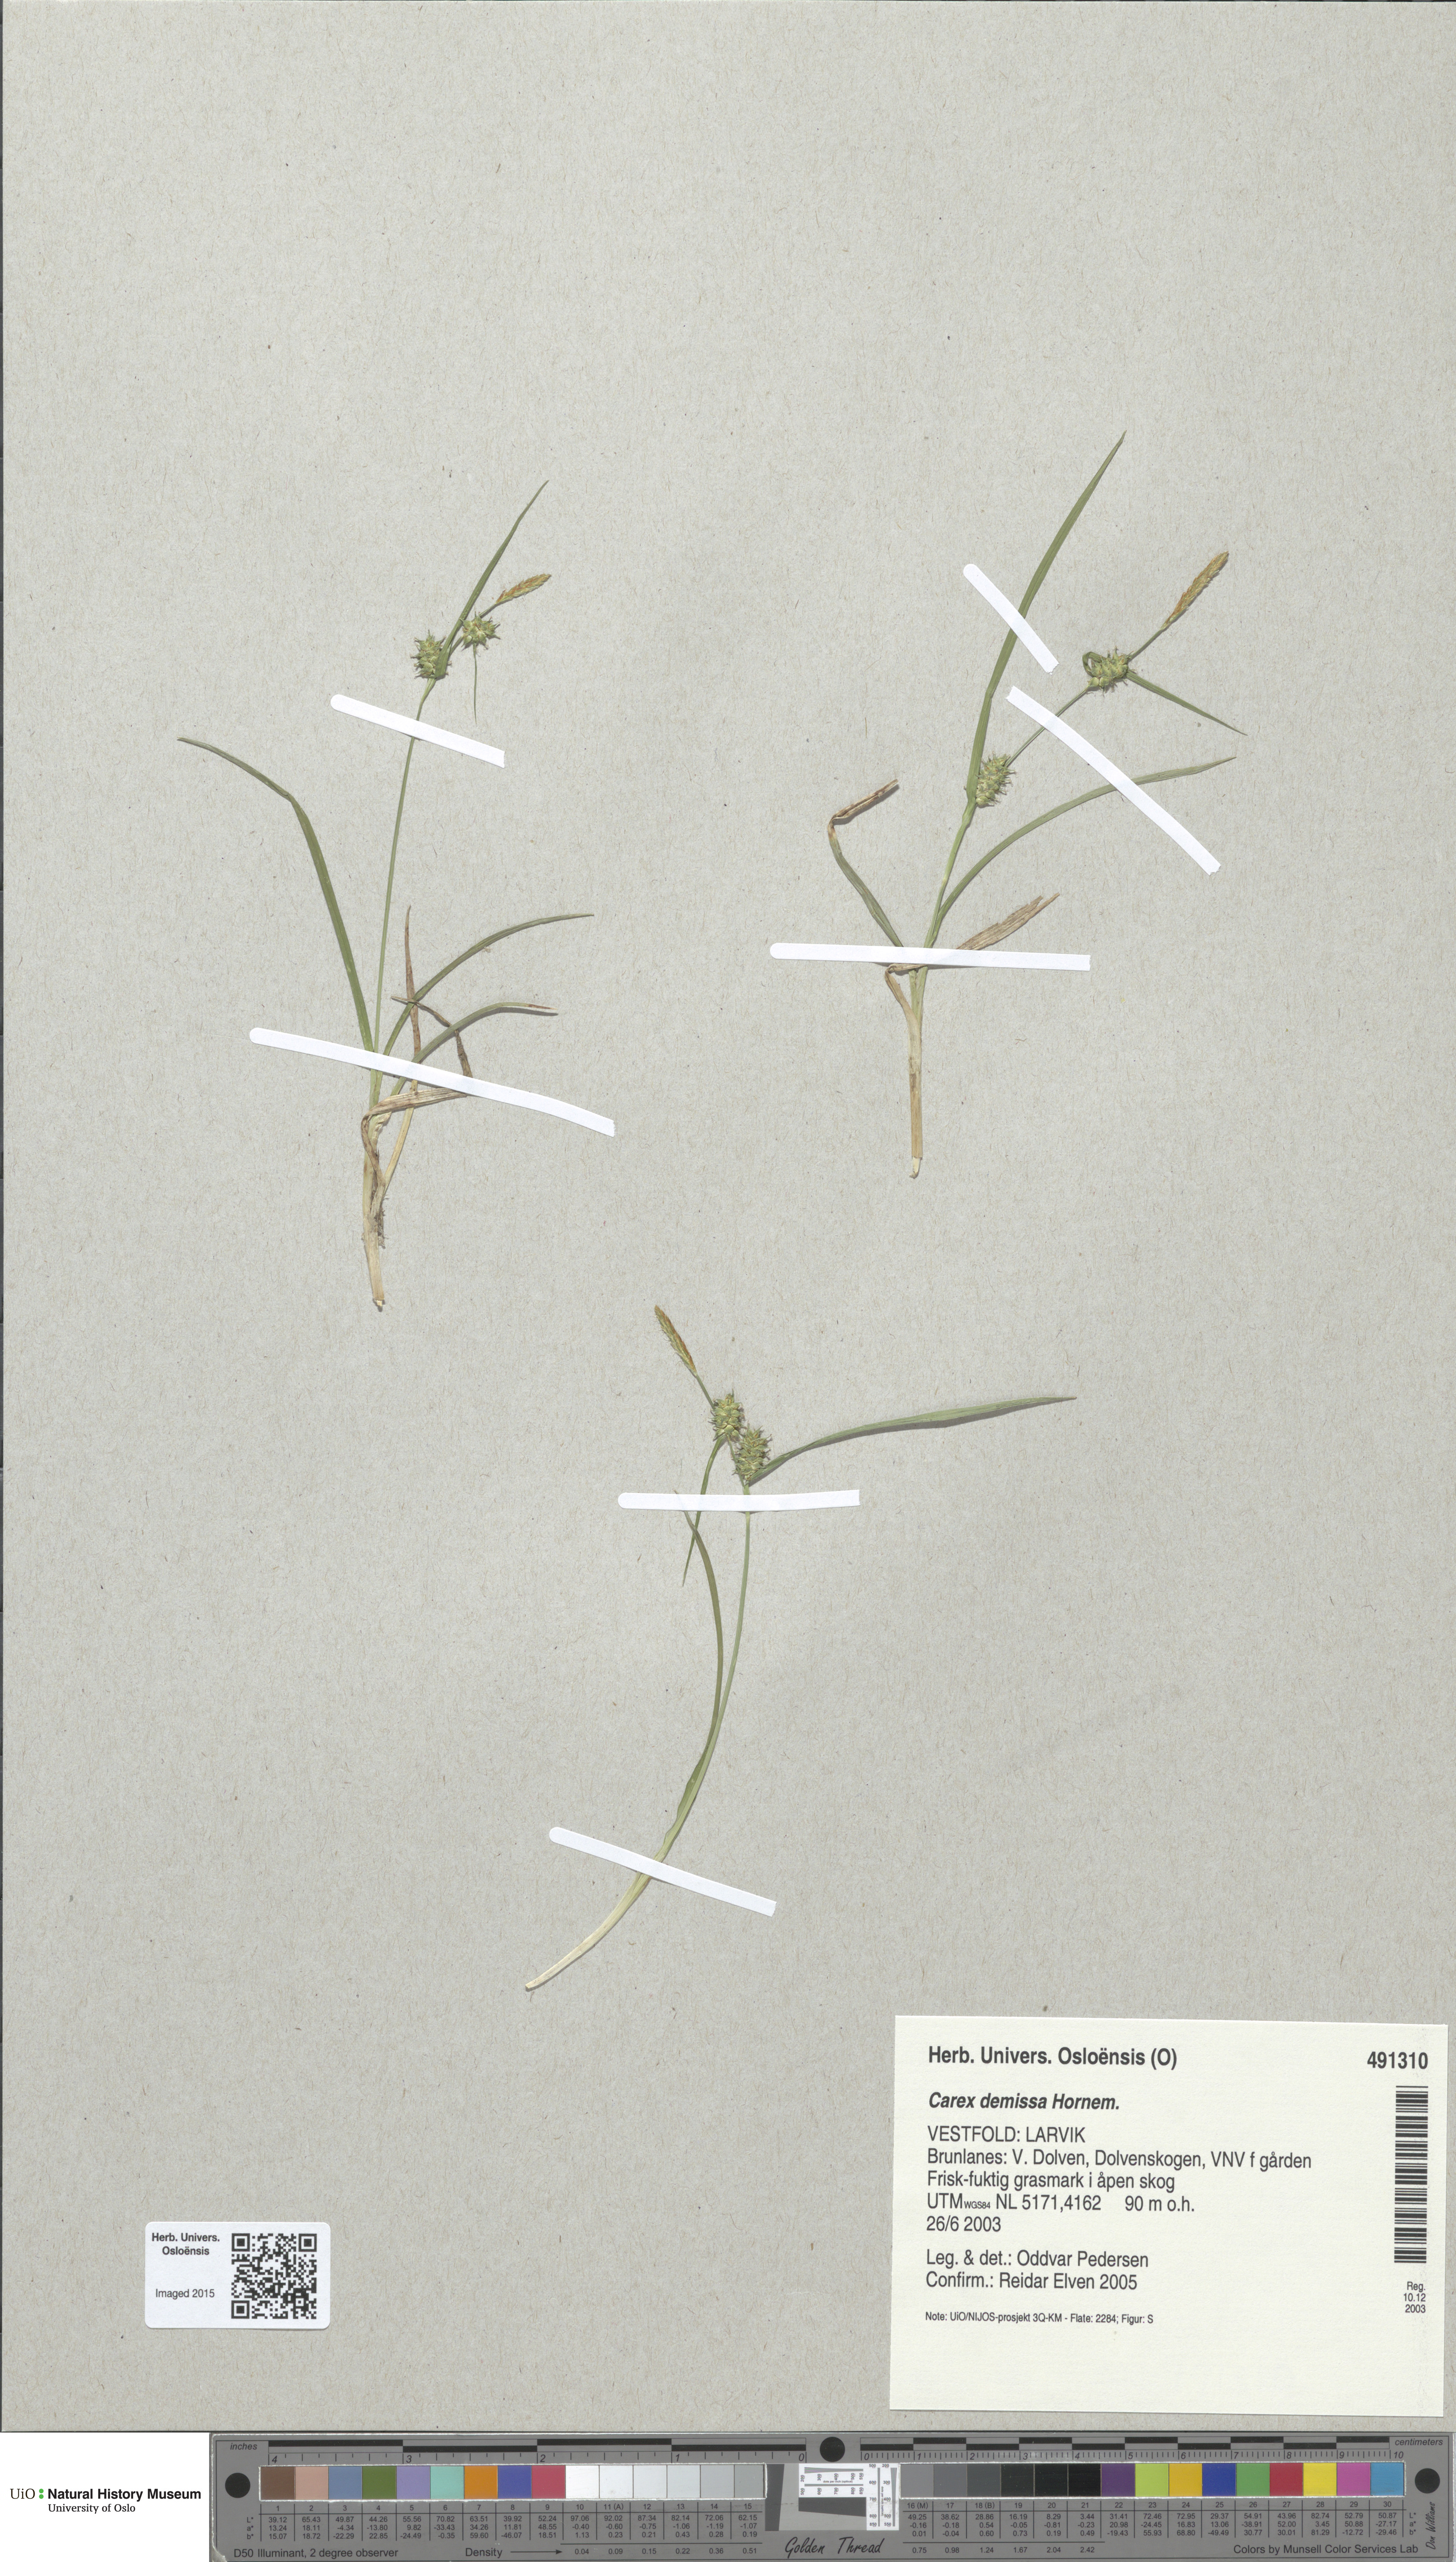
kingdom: Plantae
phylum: Tracheophyta
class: Liliopsida
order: Poales
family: Cyperaceae
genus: Carex
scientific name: Carex demissa
